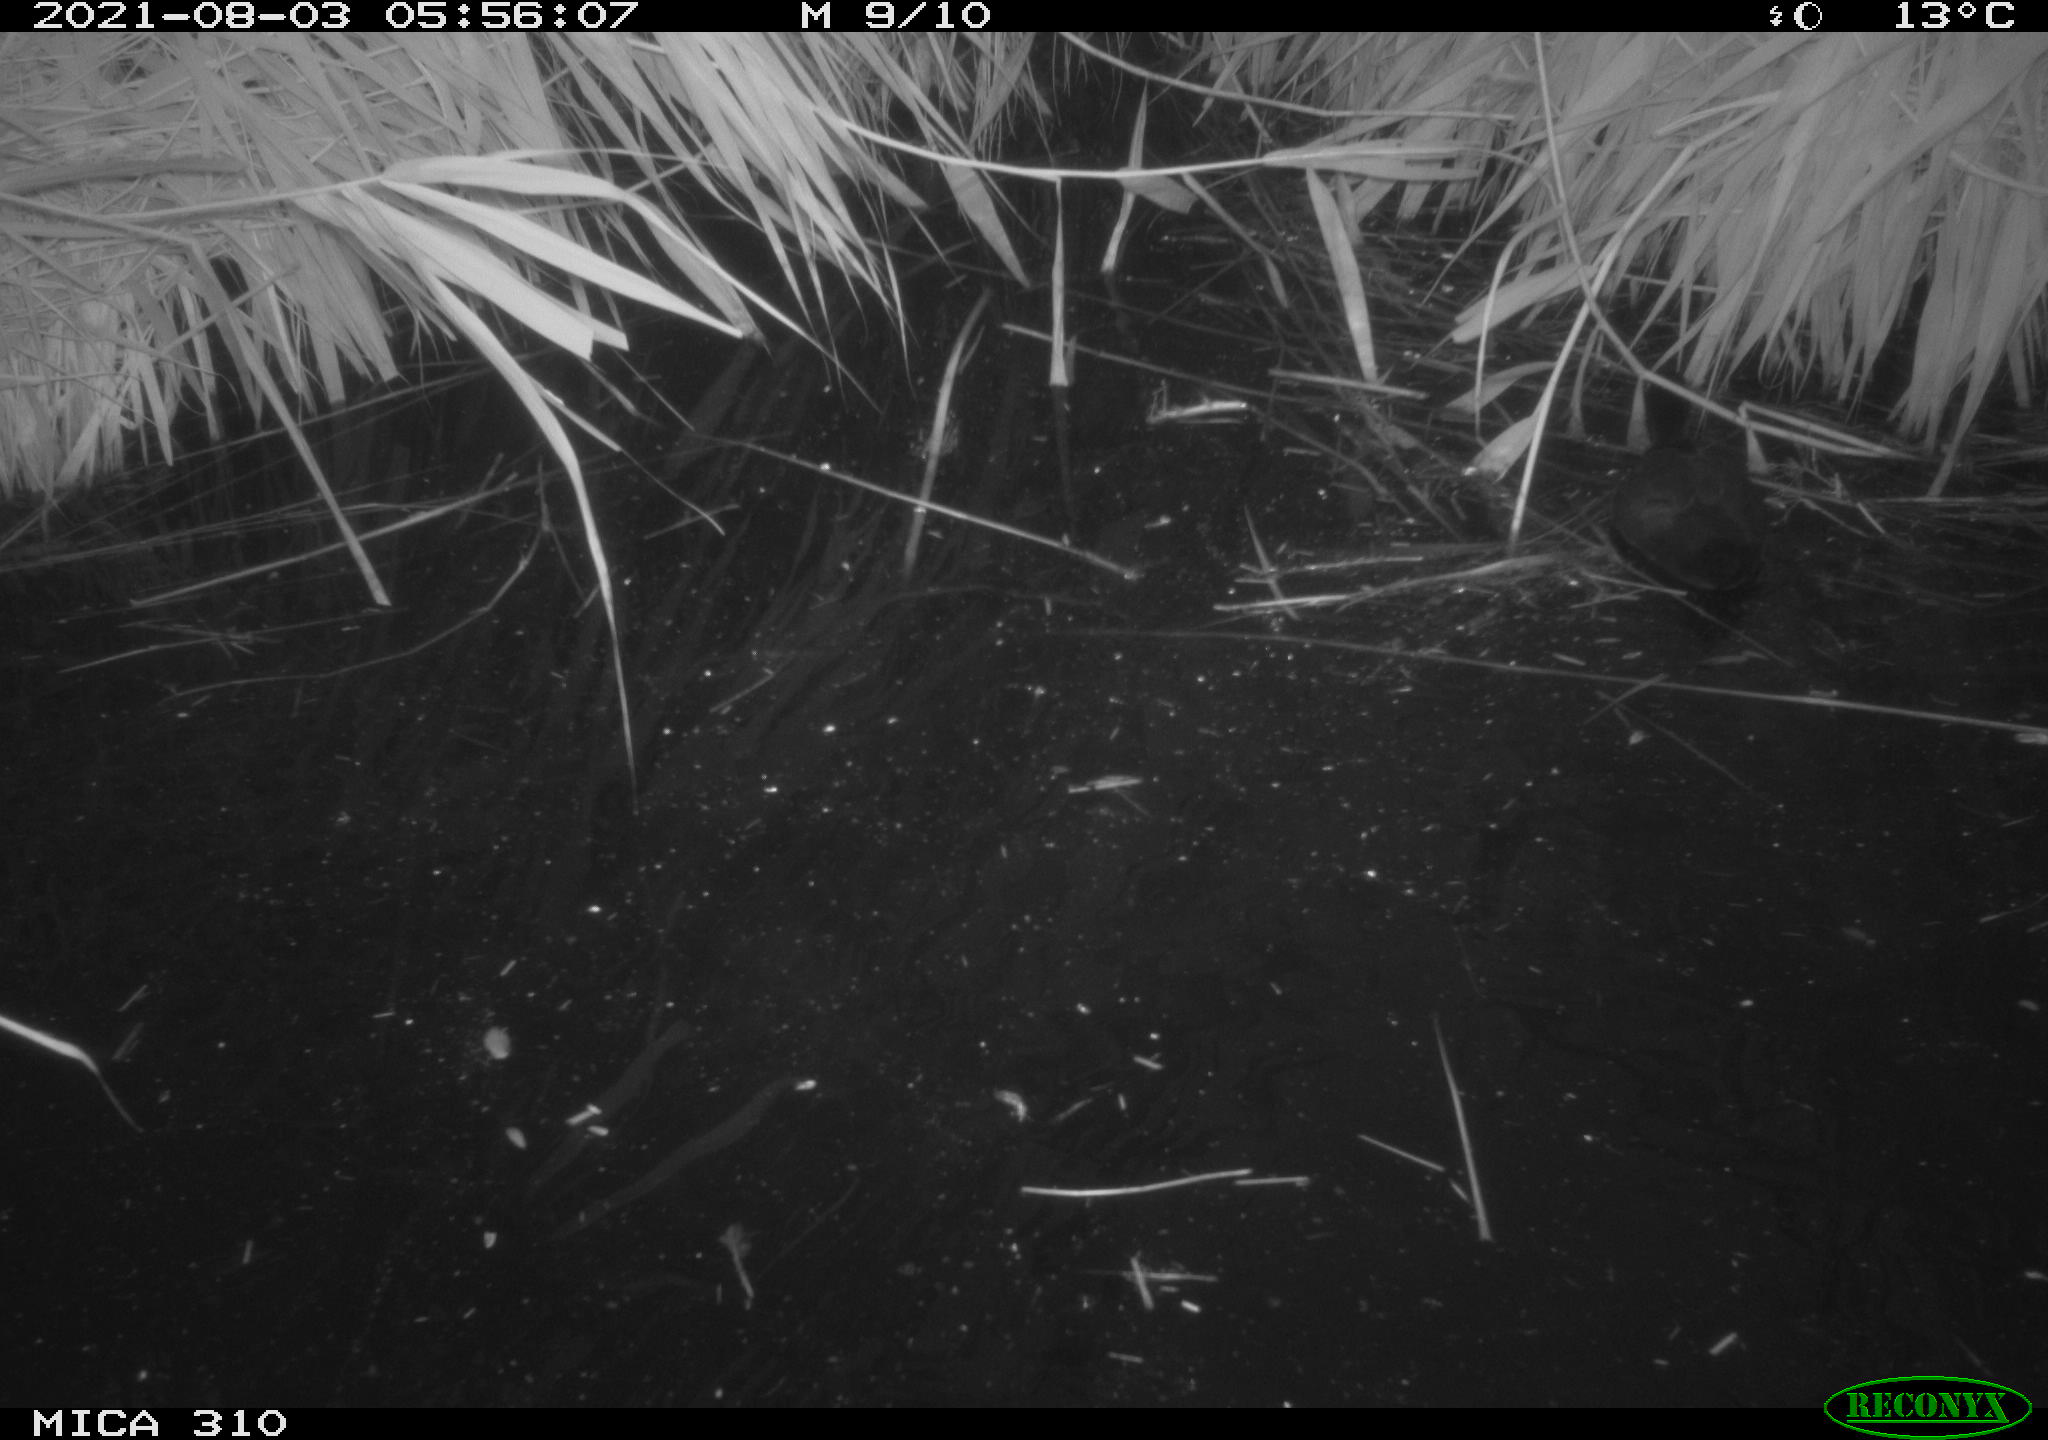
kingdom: Animalia
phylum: Chordata
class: Aves
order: Gruiformes
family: Rallidae
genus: Fulica
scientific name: Fulica atra
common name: Eurasian coot
